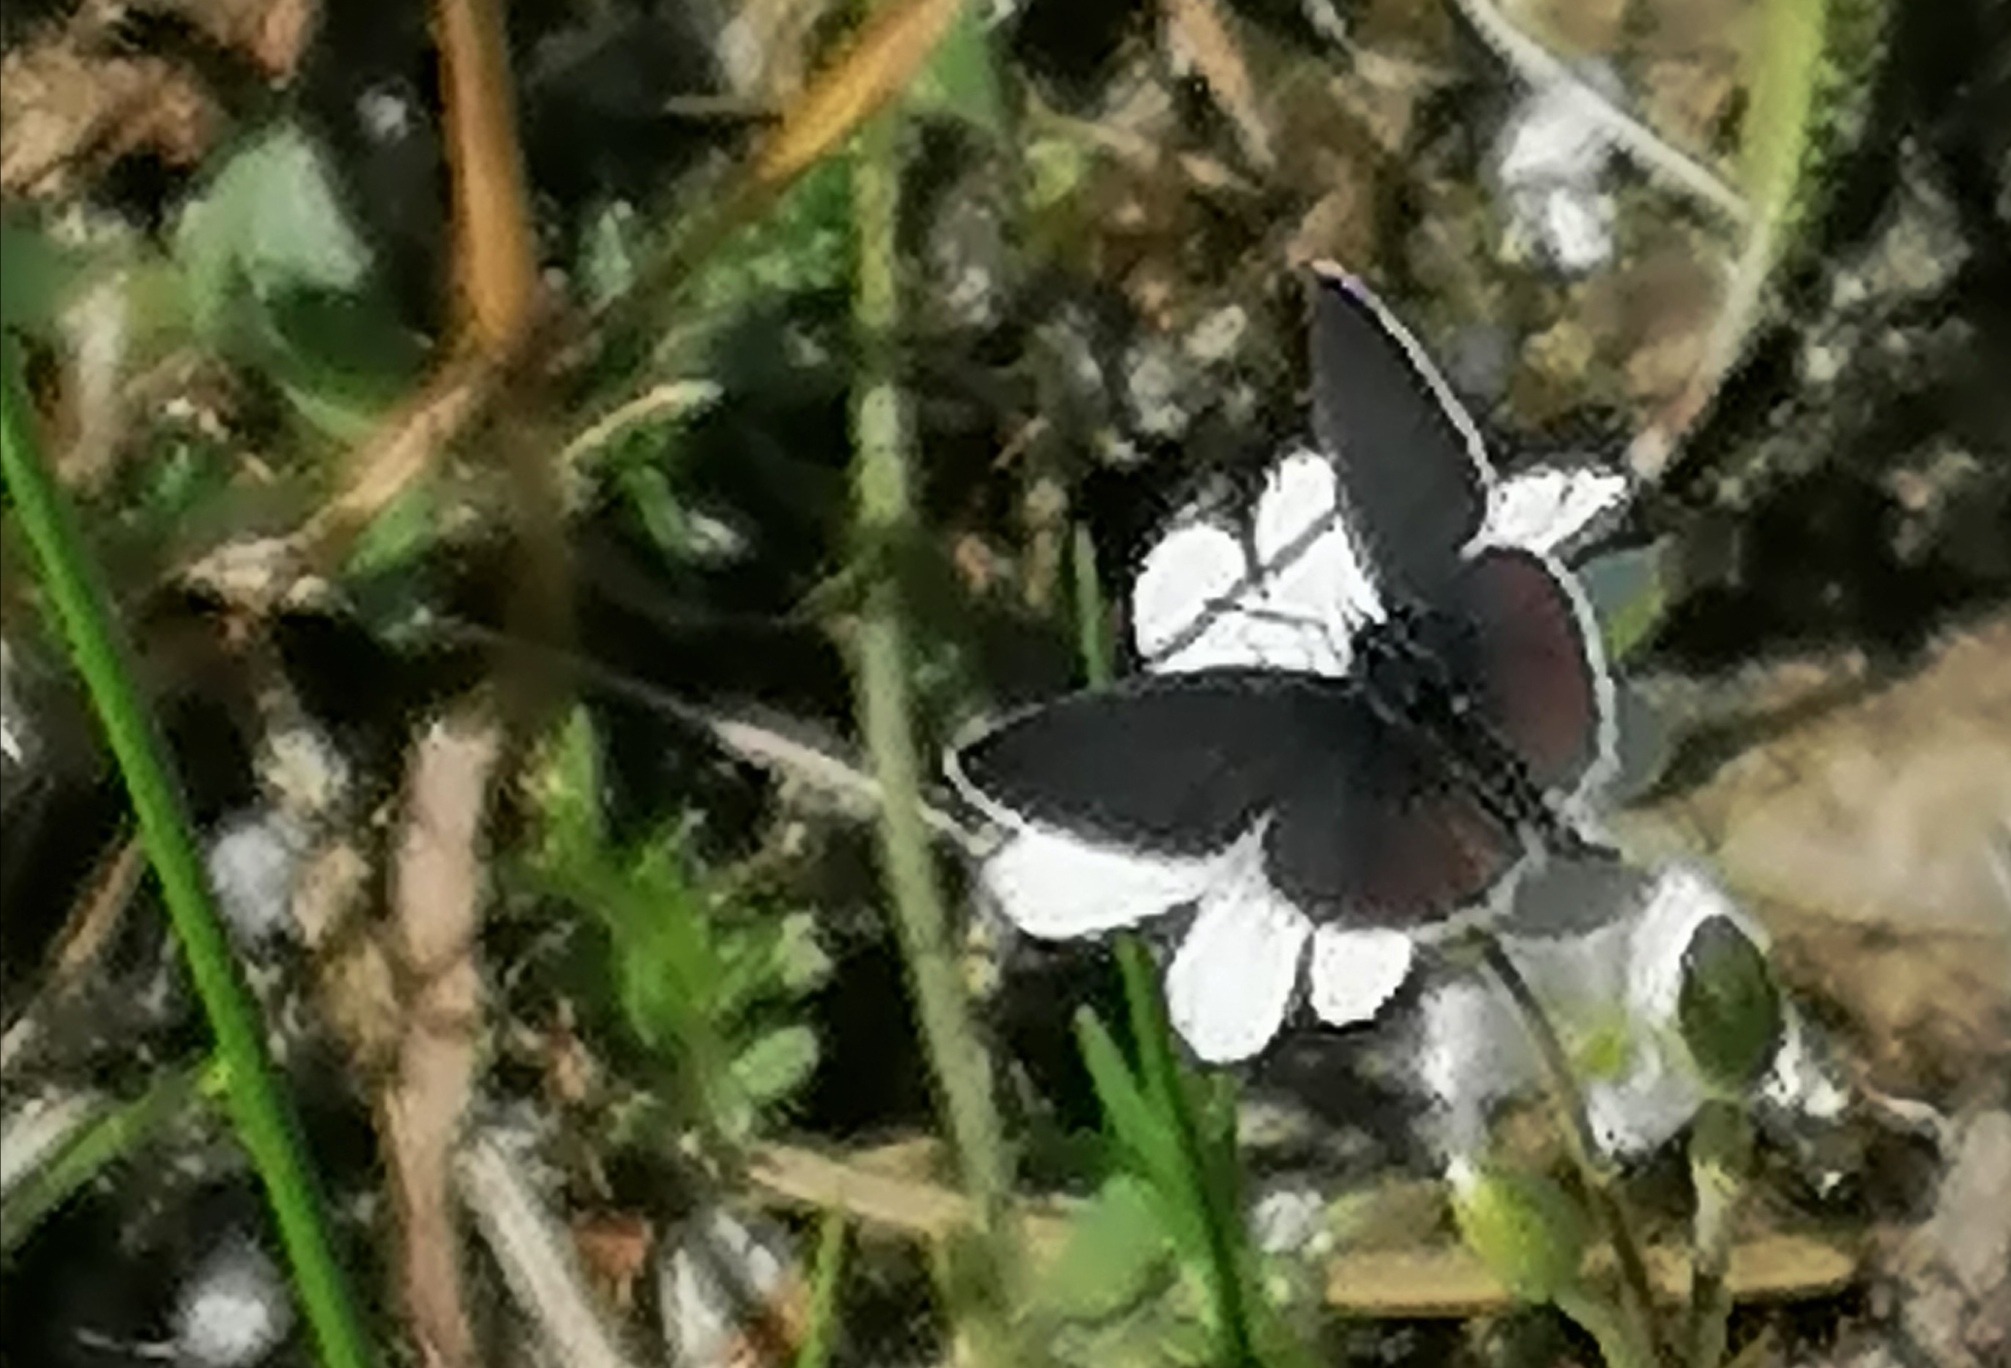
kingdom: Animalia
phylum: Arthropoda
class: Insecta
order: Lepidoptera
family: Lycaenidae
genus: Cupido
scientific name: Cupido minimus
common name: Dværgblåfugl
